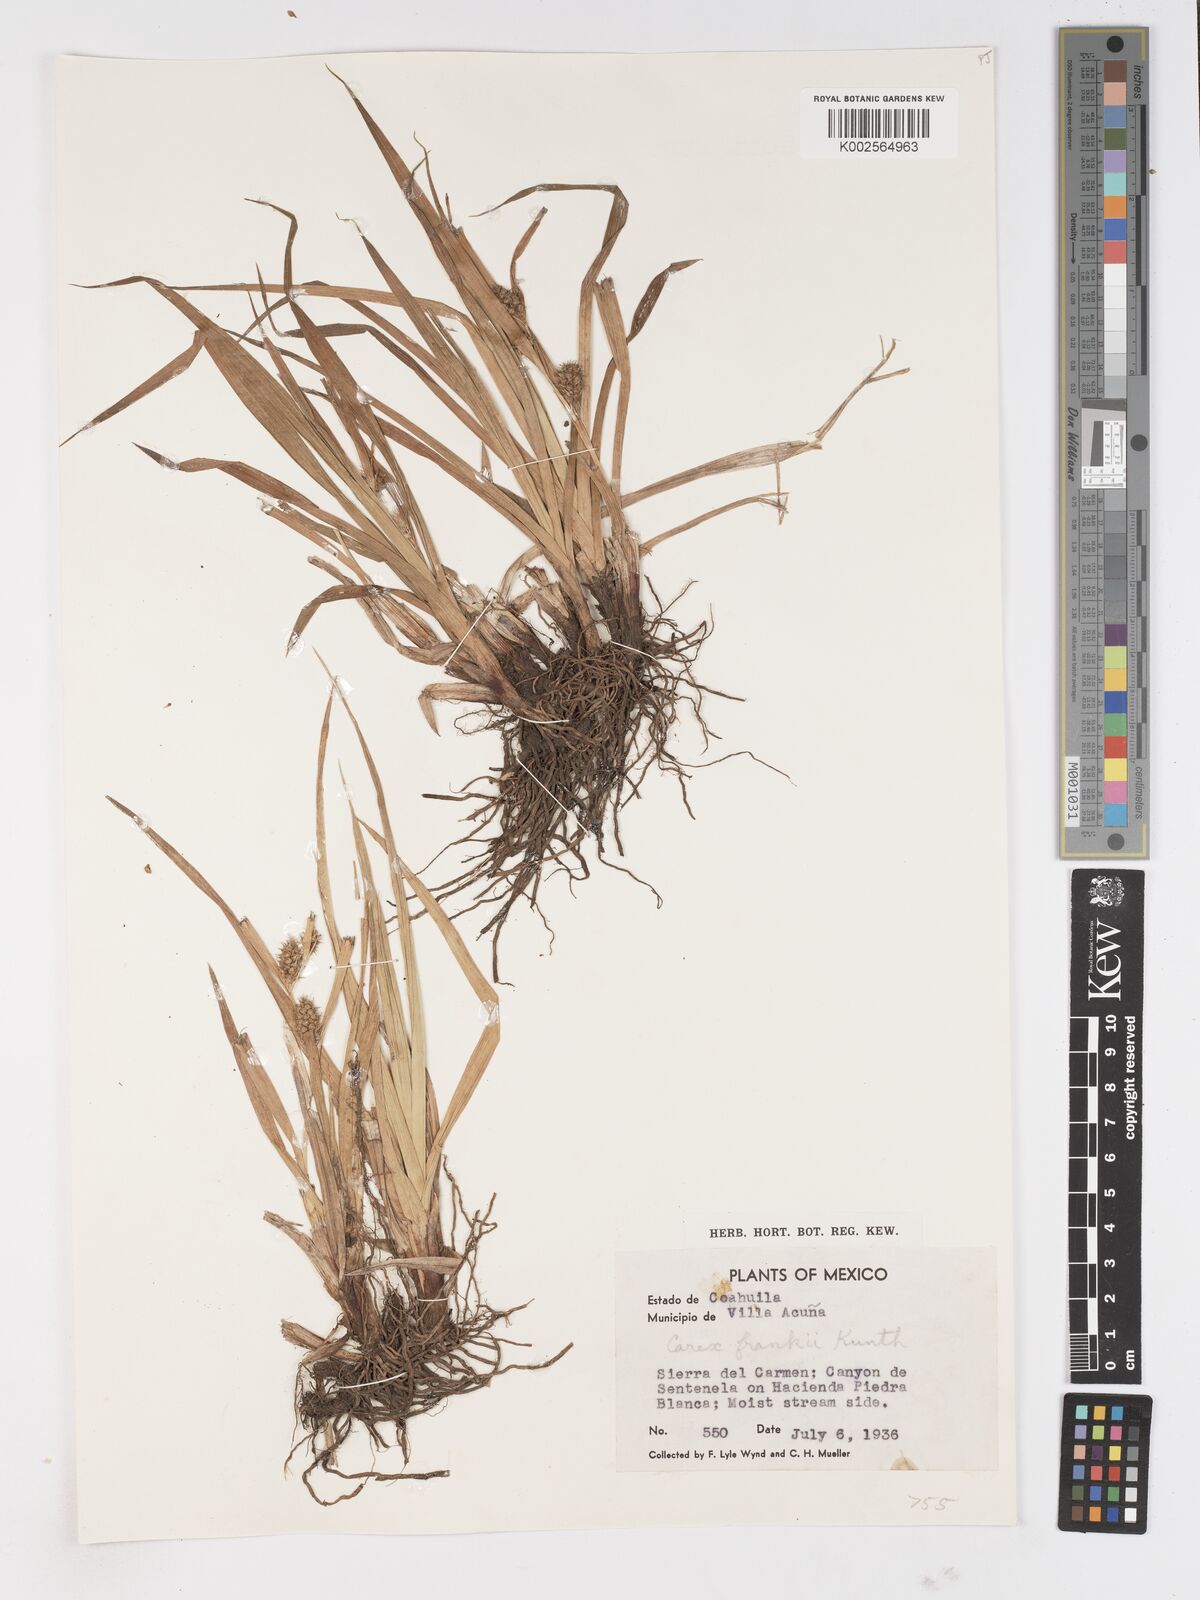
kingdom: Plantae
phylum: Tracheophyta
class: Liliopsida
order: Poales
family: Cyperaceae
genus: Carex
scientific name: Carex frankii
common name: Frank's sedge
